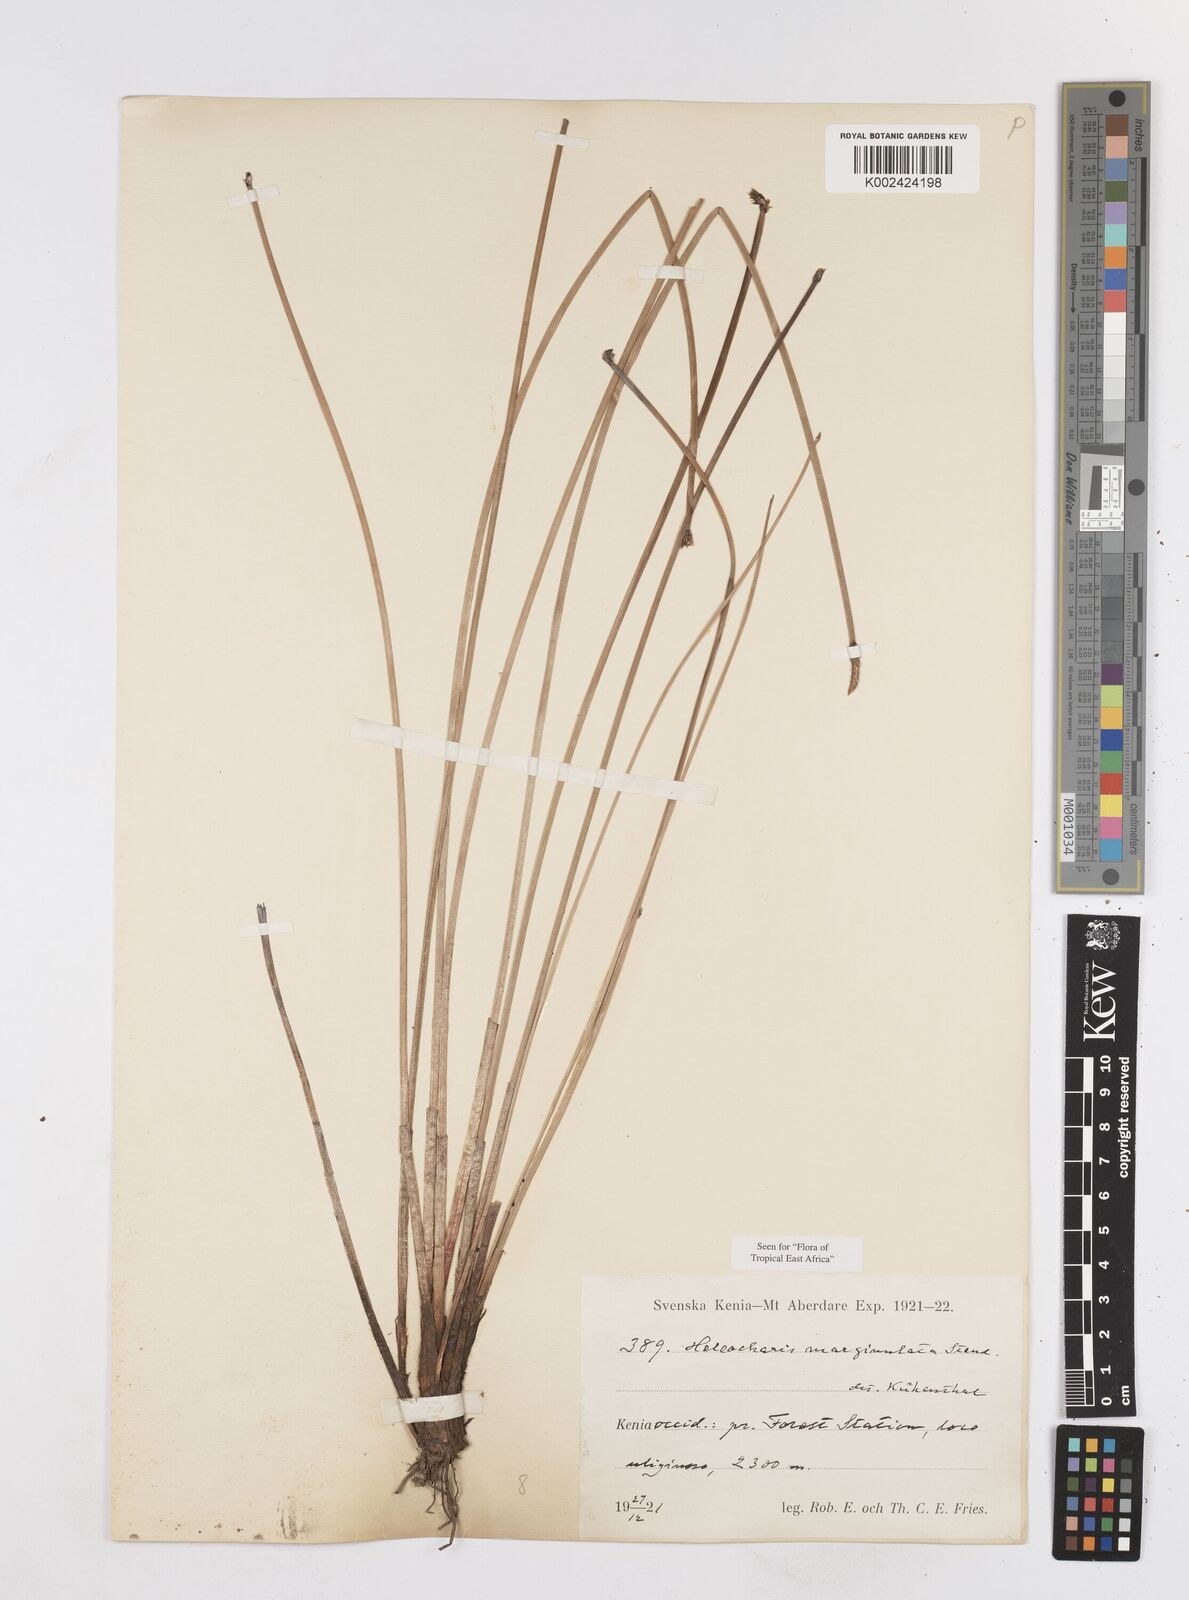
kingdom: Plantae
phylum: Tracheophyta
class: Liliopsida
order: Poales
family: Cyperaceae
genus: Eleocharis
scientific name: Eleocharis marginulata
